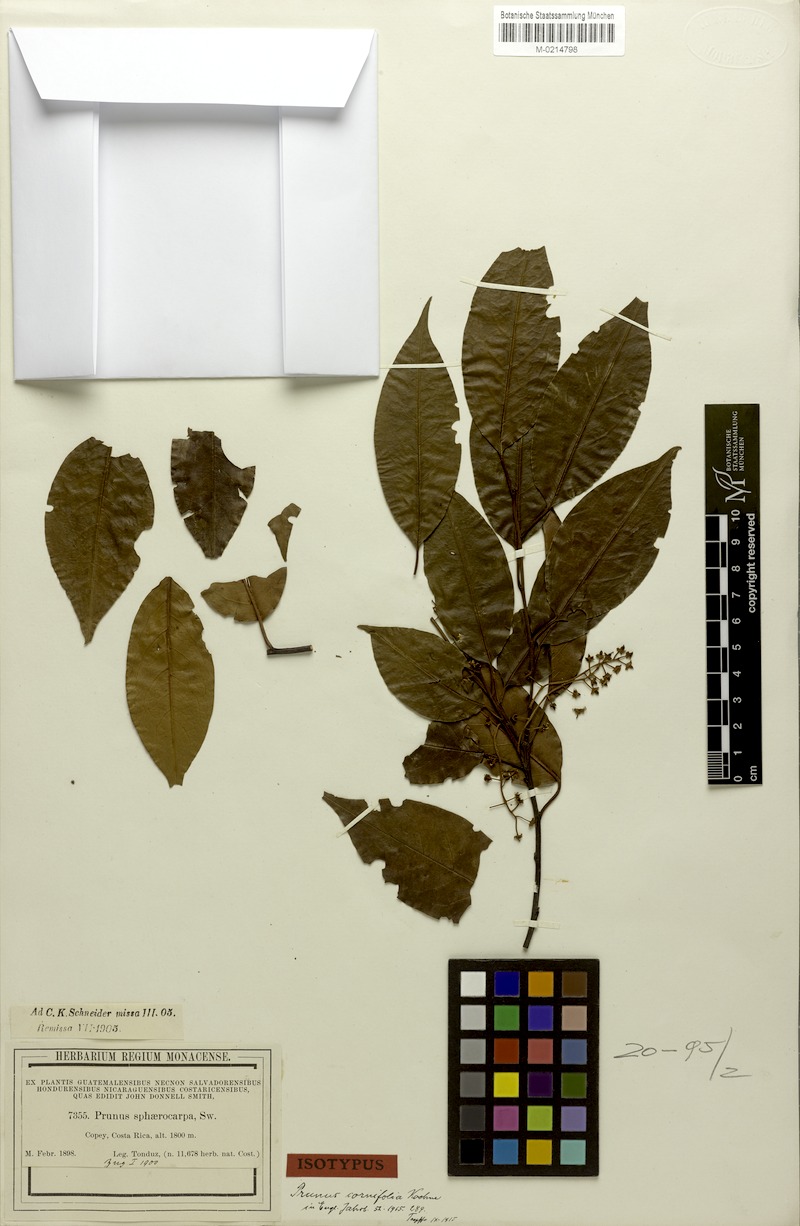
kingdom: Plantae
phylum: Tracheophyta
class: Magnoliopsida
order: Rosales
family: Rosaceae
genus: Prunus
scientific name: Prunus rhamnoides
